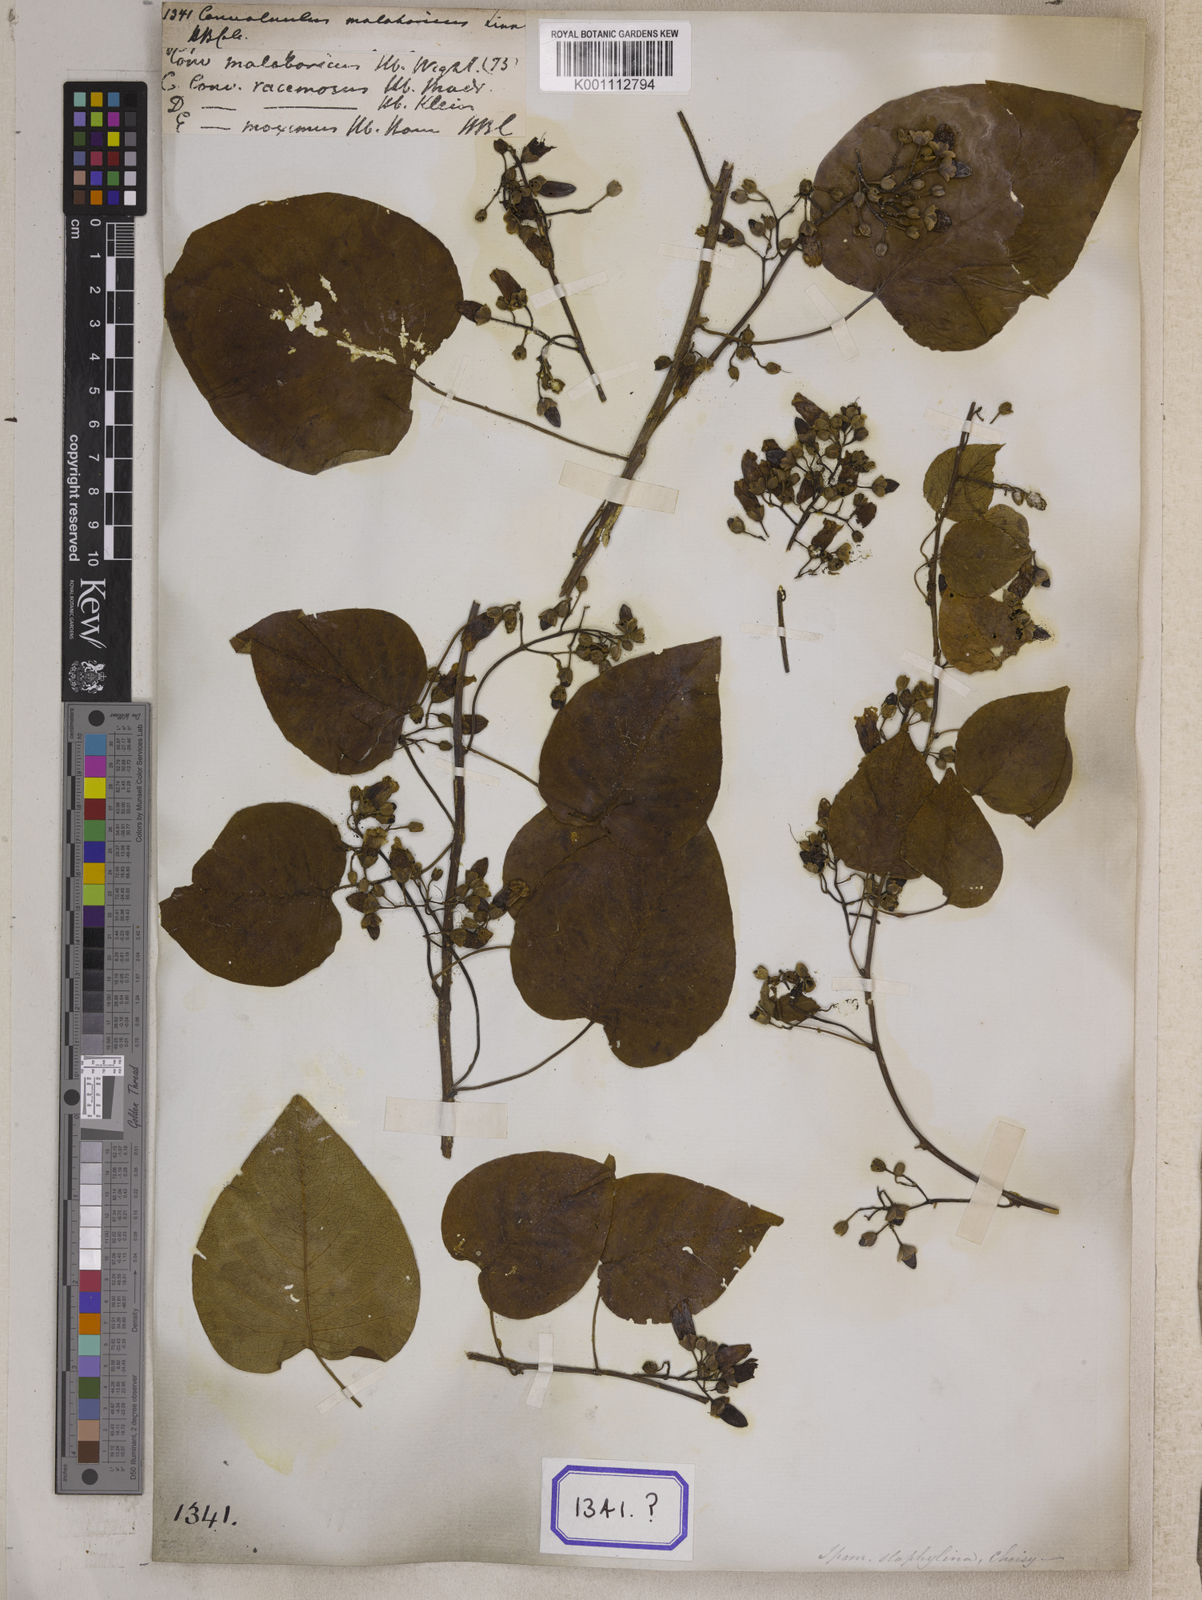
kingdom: Plantae
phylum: Tracheophyta
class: Magnoliopsida
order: Solanales
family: Convolvulaceae
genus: Hewittia
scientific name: Hewittia malabarica
